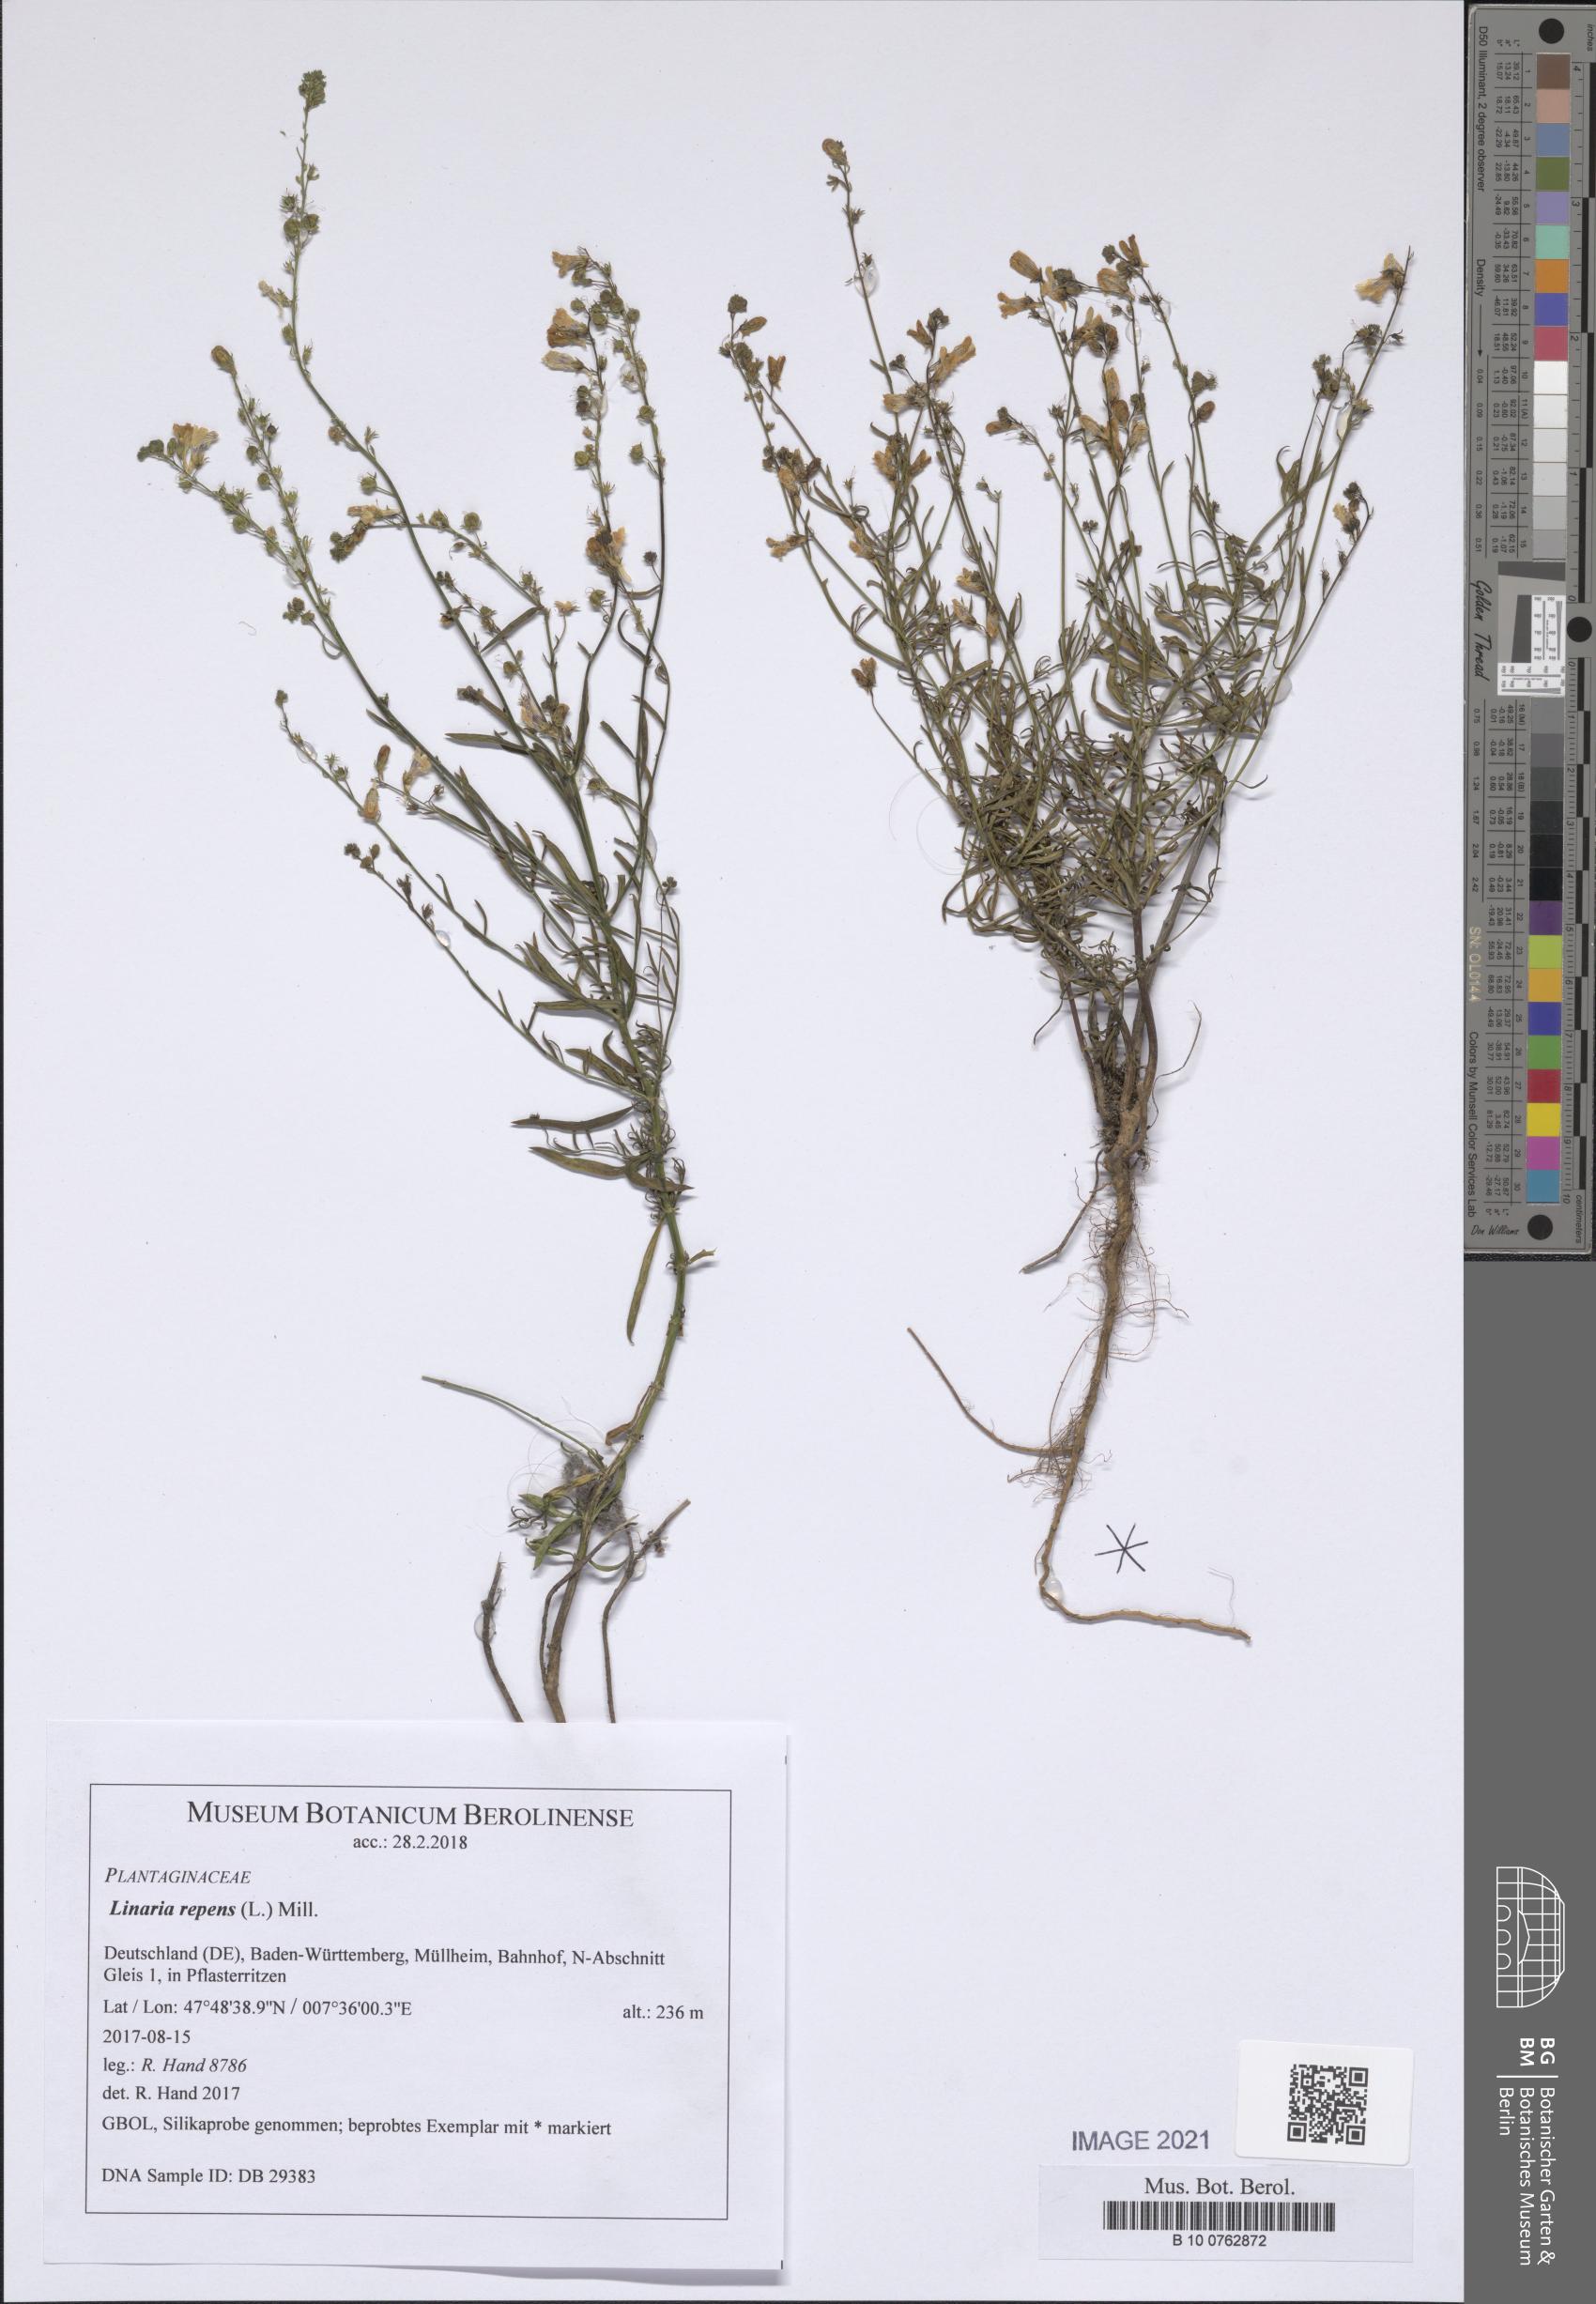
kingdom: Plantae
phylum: Tracheophyta
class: Magnoliopsida
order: Lamiales
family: Plantaginaceae
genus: Linaria
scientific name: Linaria repens
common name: Pale toadflax
